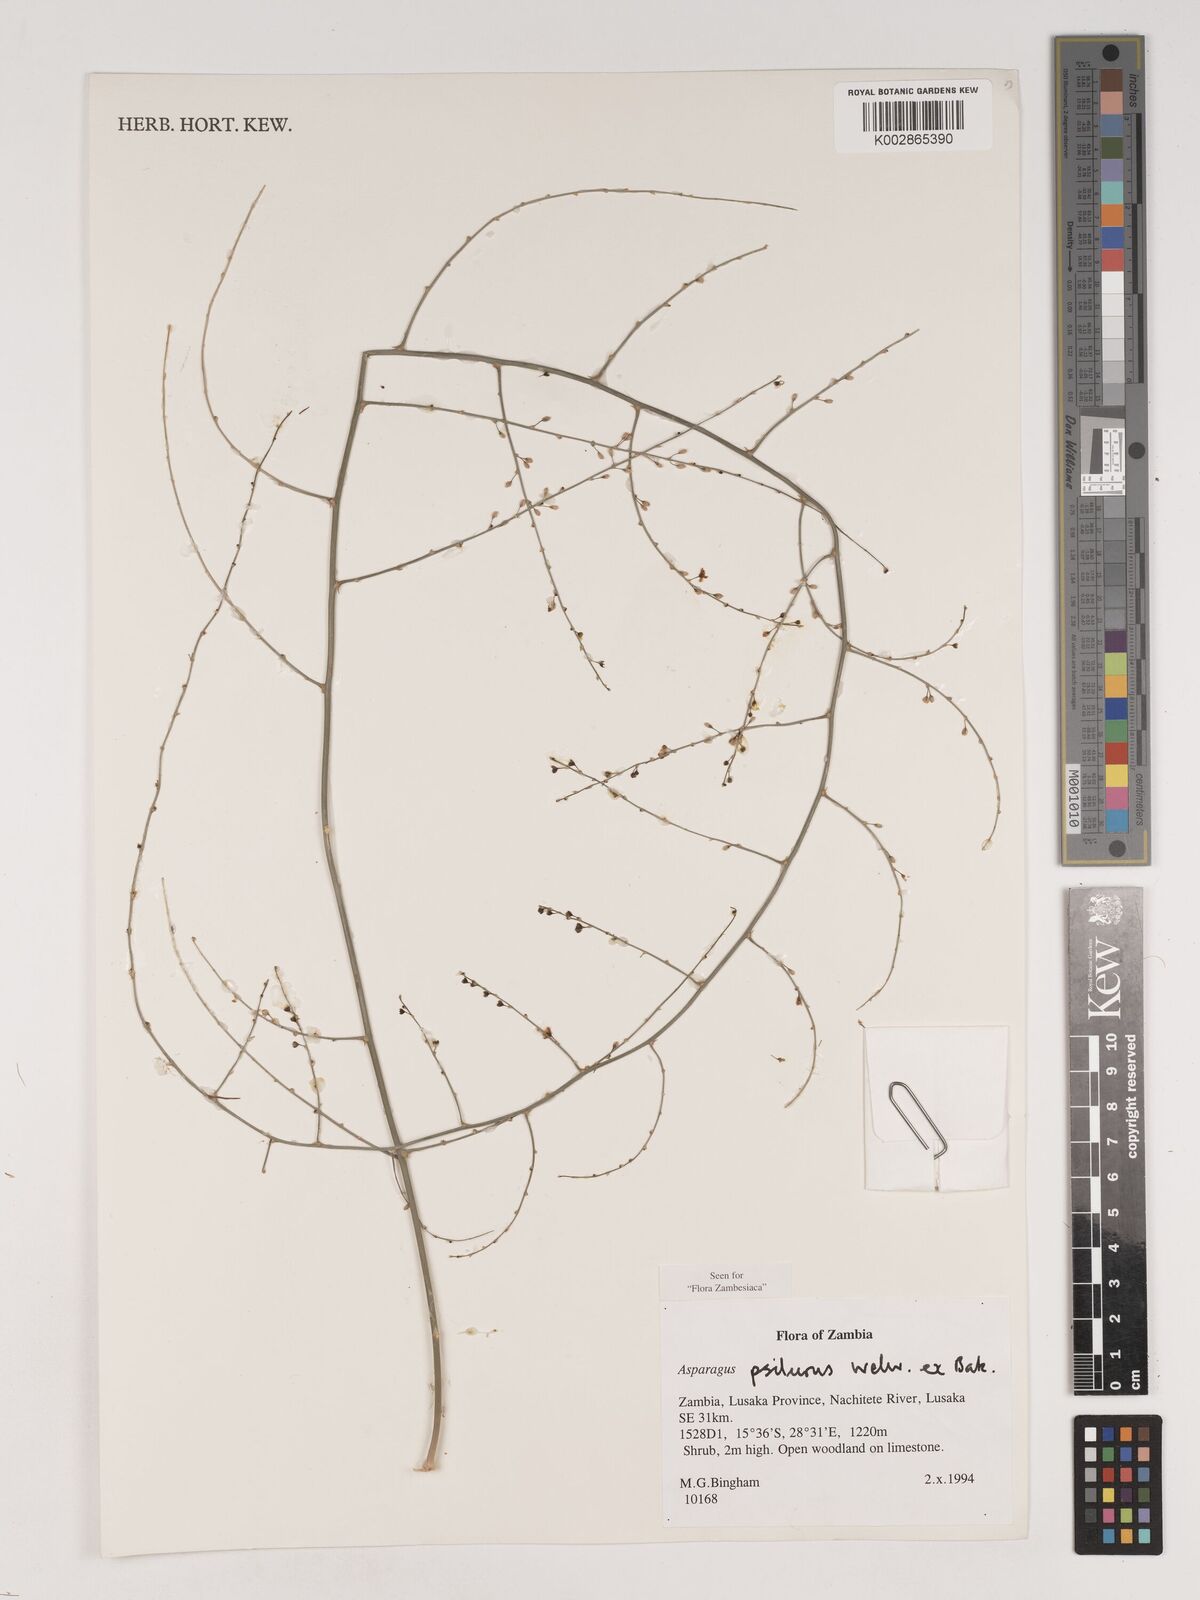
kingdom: Plantae
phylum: Tracheophyta
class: Liliopsida
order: Asparagales
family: Asparagaceae
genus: Asparagus
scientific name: Asparagus psilurus
